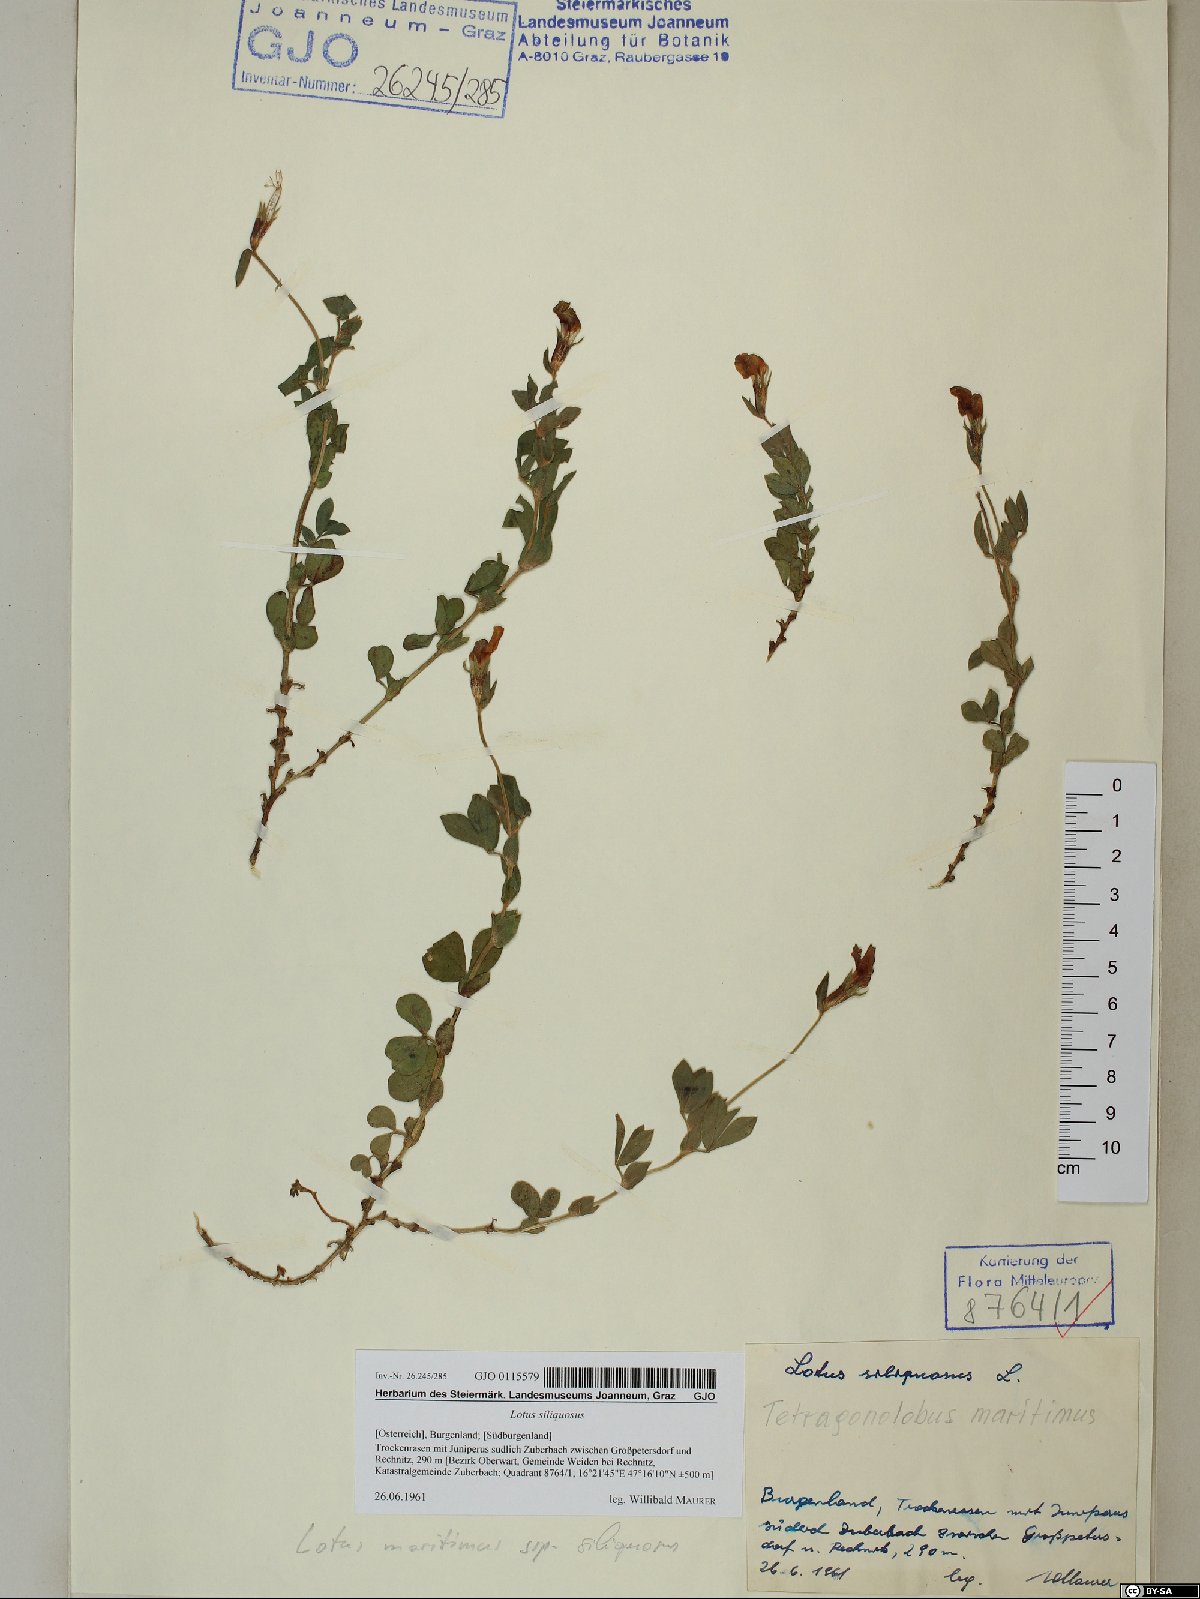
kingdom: Plantae
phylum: Tracheophyta
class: Magnoliopsida
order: Fabales
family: Fabaceae
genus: Lathyrus
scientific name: Lathyrus inconspicuus
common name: Inconspicuous pea
